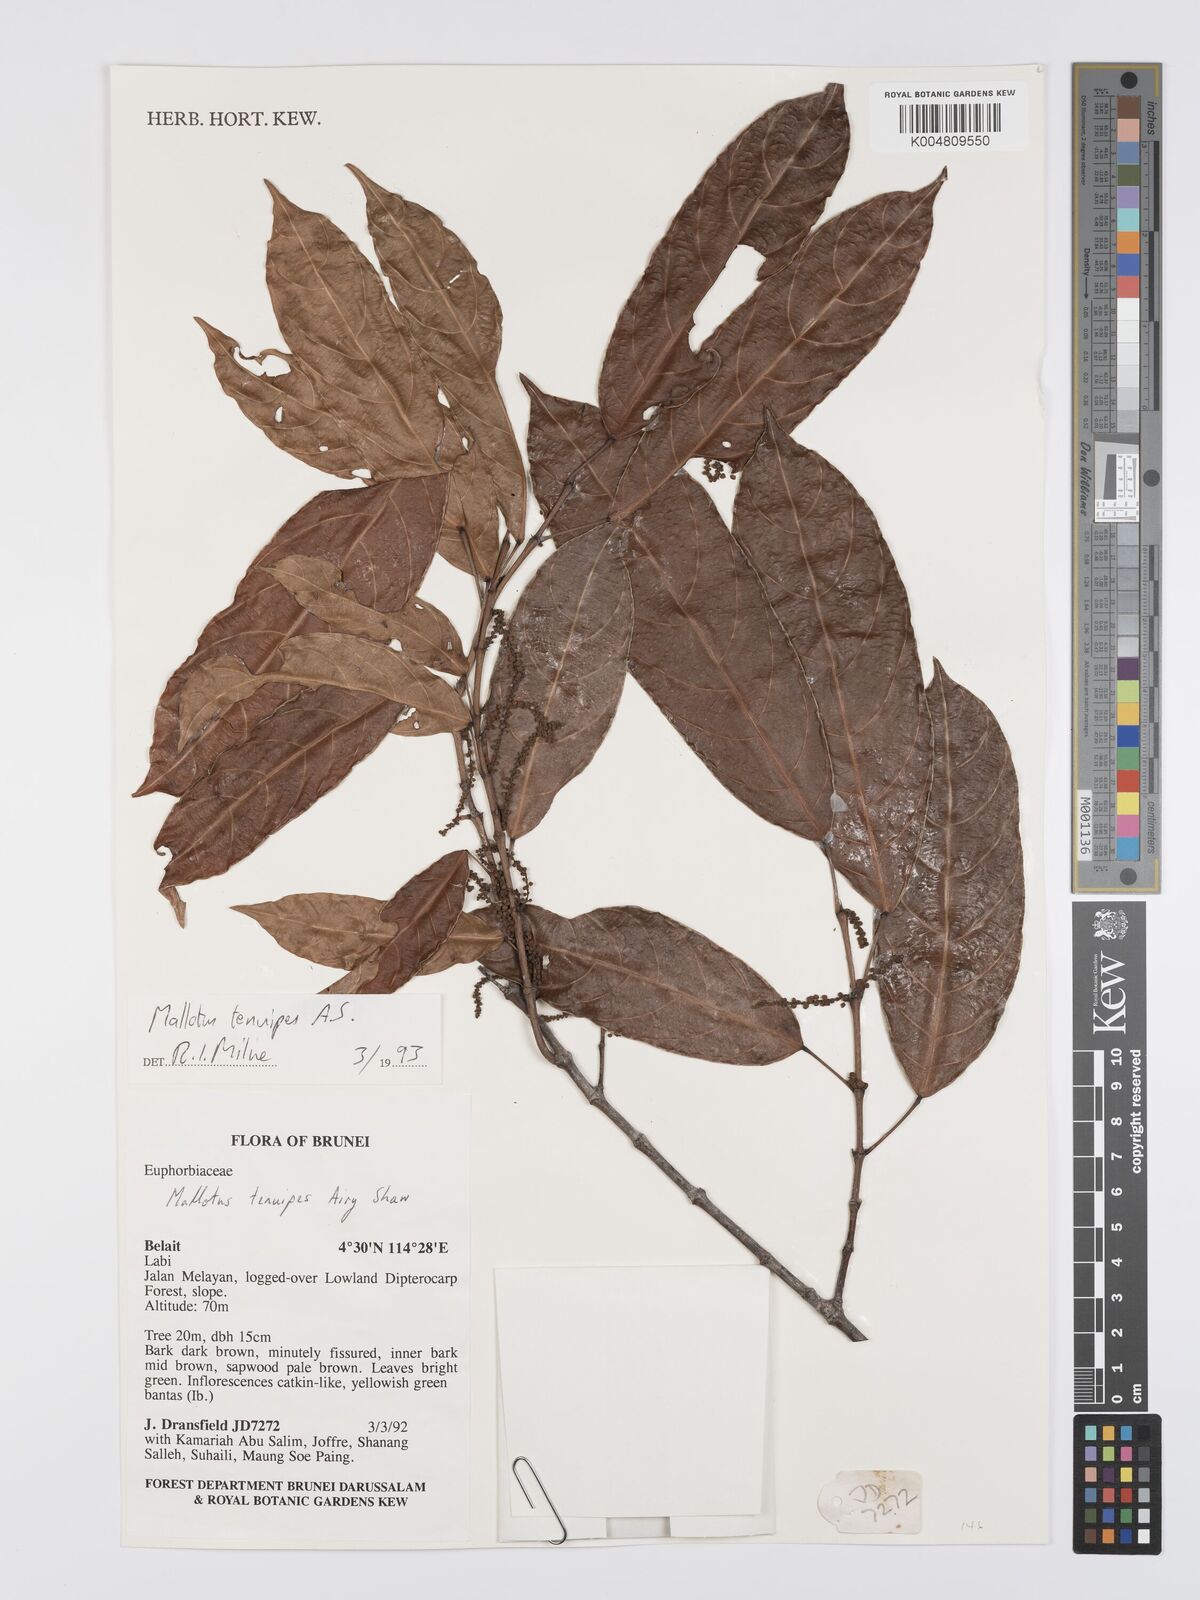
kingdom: Plantae
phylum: Tracheophyta
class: Magnoliopsida
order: Malpighiales
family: Euphorbiaceae
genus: Hancea
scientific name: Hancea penangensis
